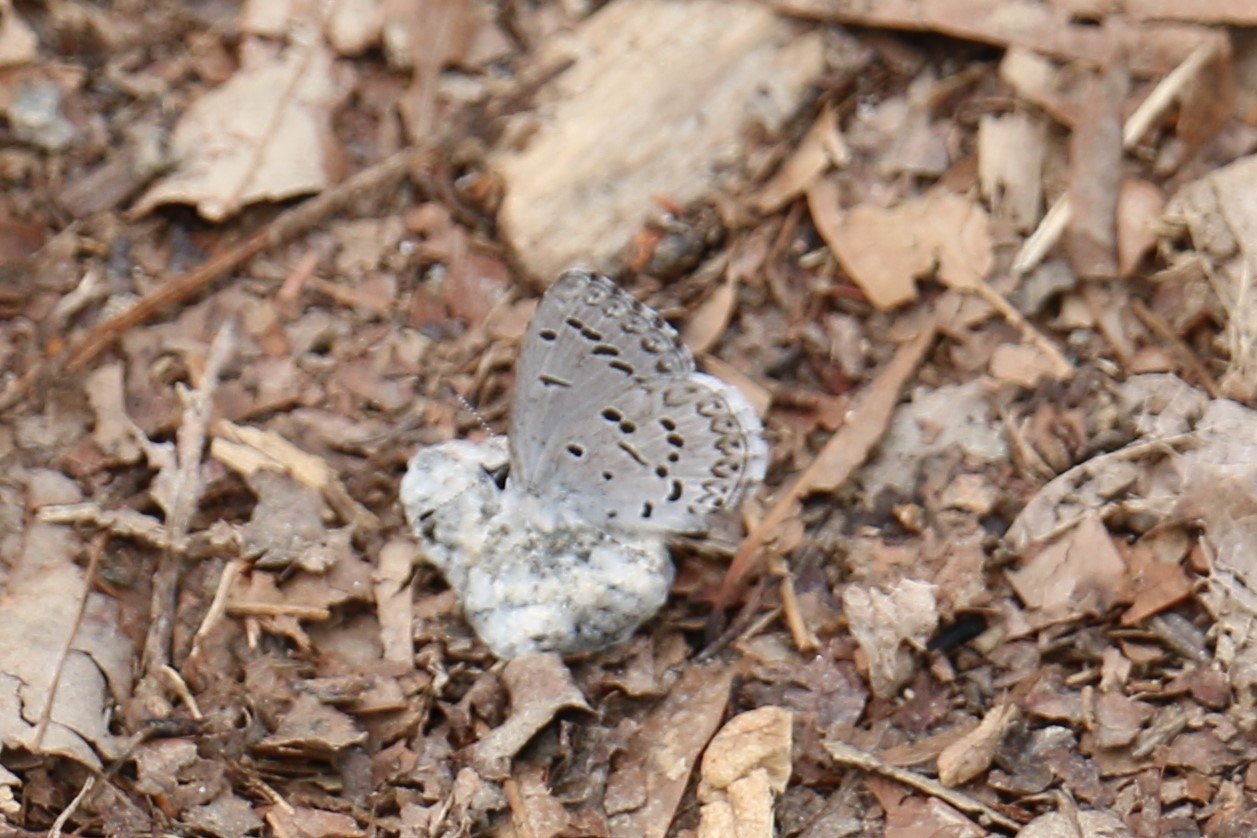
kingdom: Animalia
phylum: Arthropoda
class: Insecta
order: Lepidoptera
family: Lycaenidae
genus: Cyaniris
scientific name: Cyaniris neglecta
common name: Summer Azure
